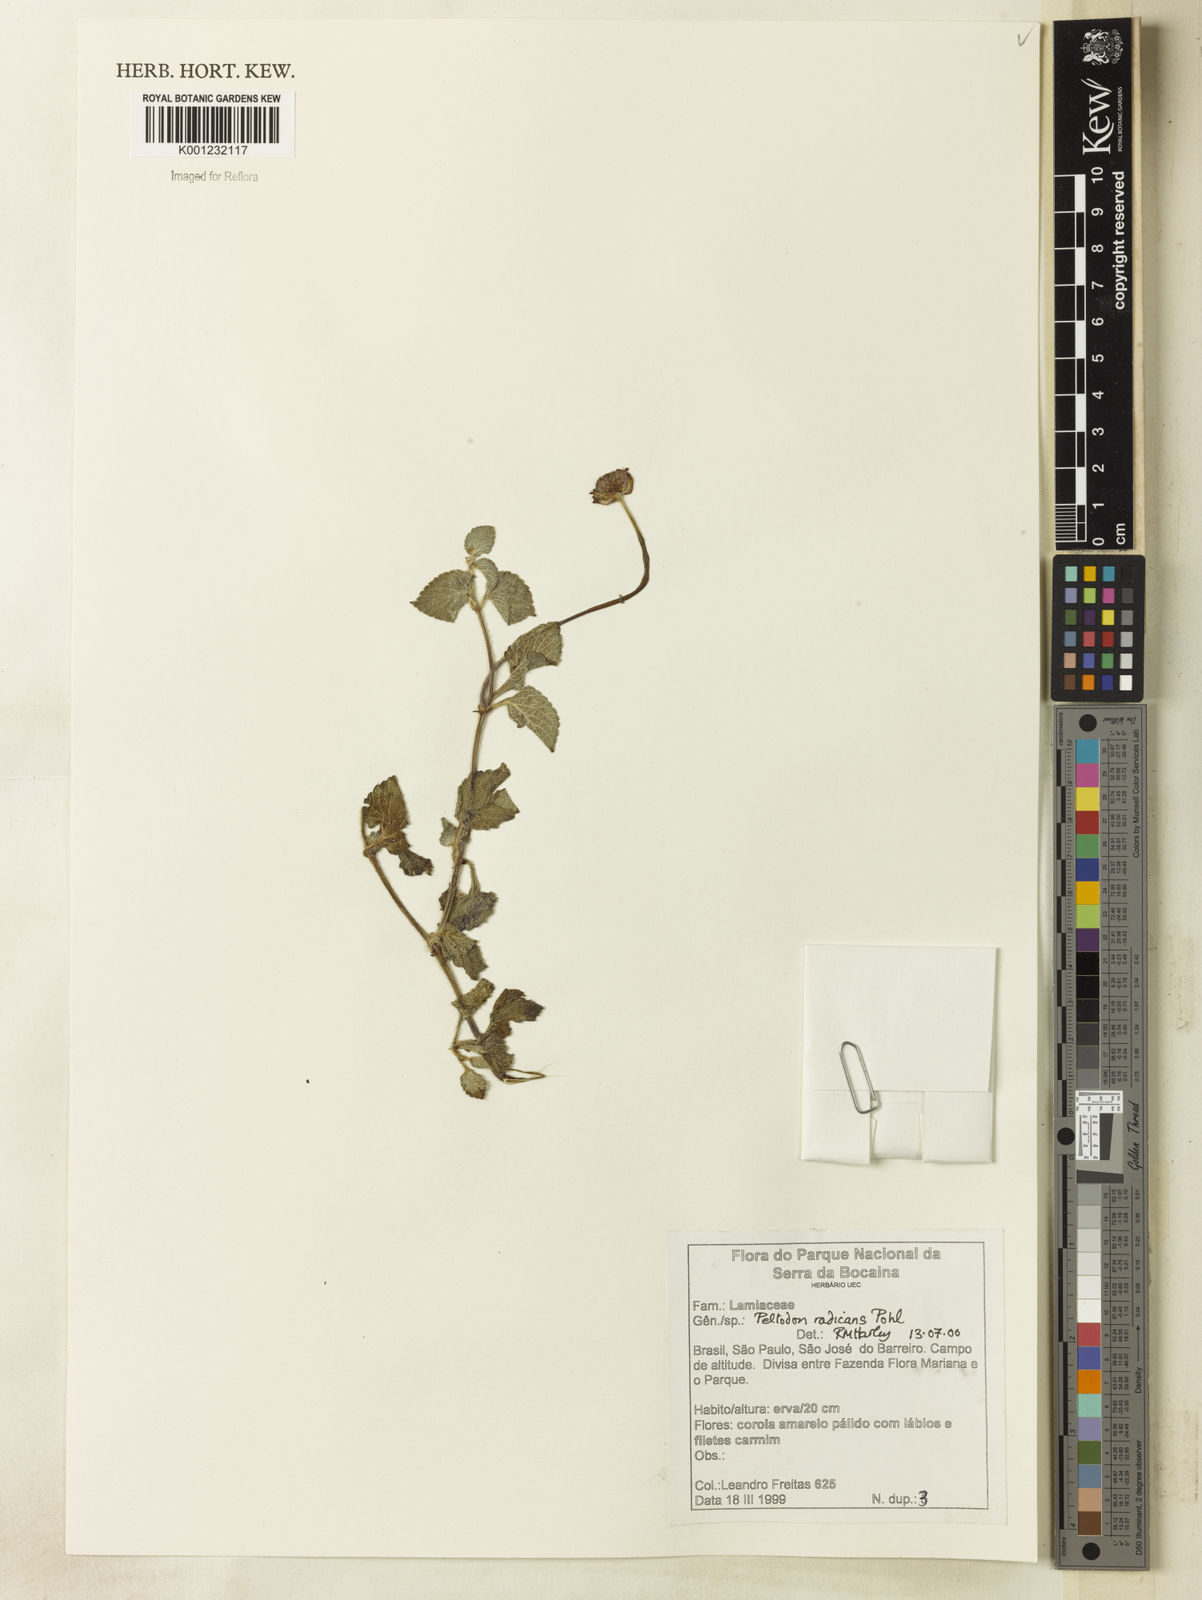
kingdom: Plantae
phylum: Tracheophyta
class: Magnoliopsida
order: Lamiales
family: Lamiaceae
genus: Hyptis
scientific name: Hyptis radicans
